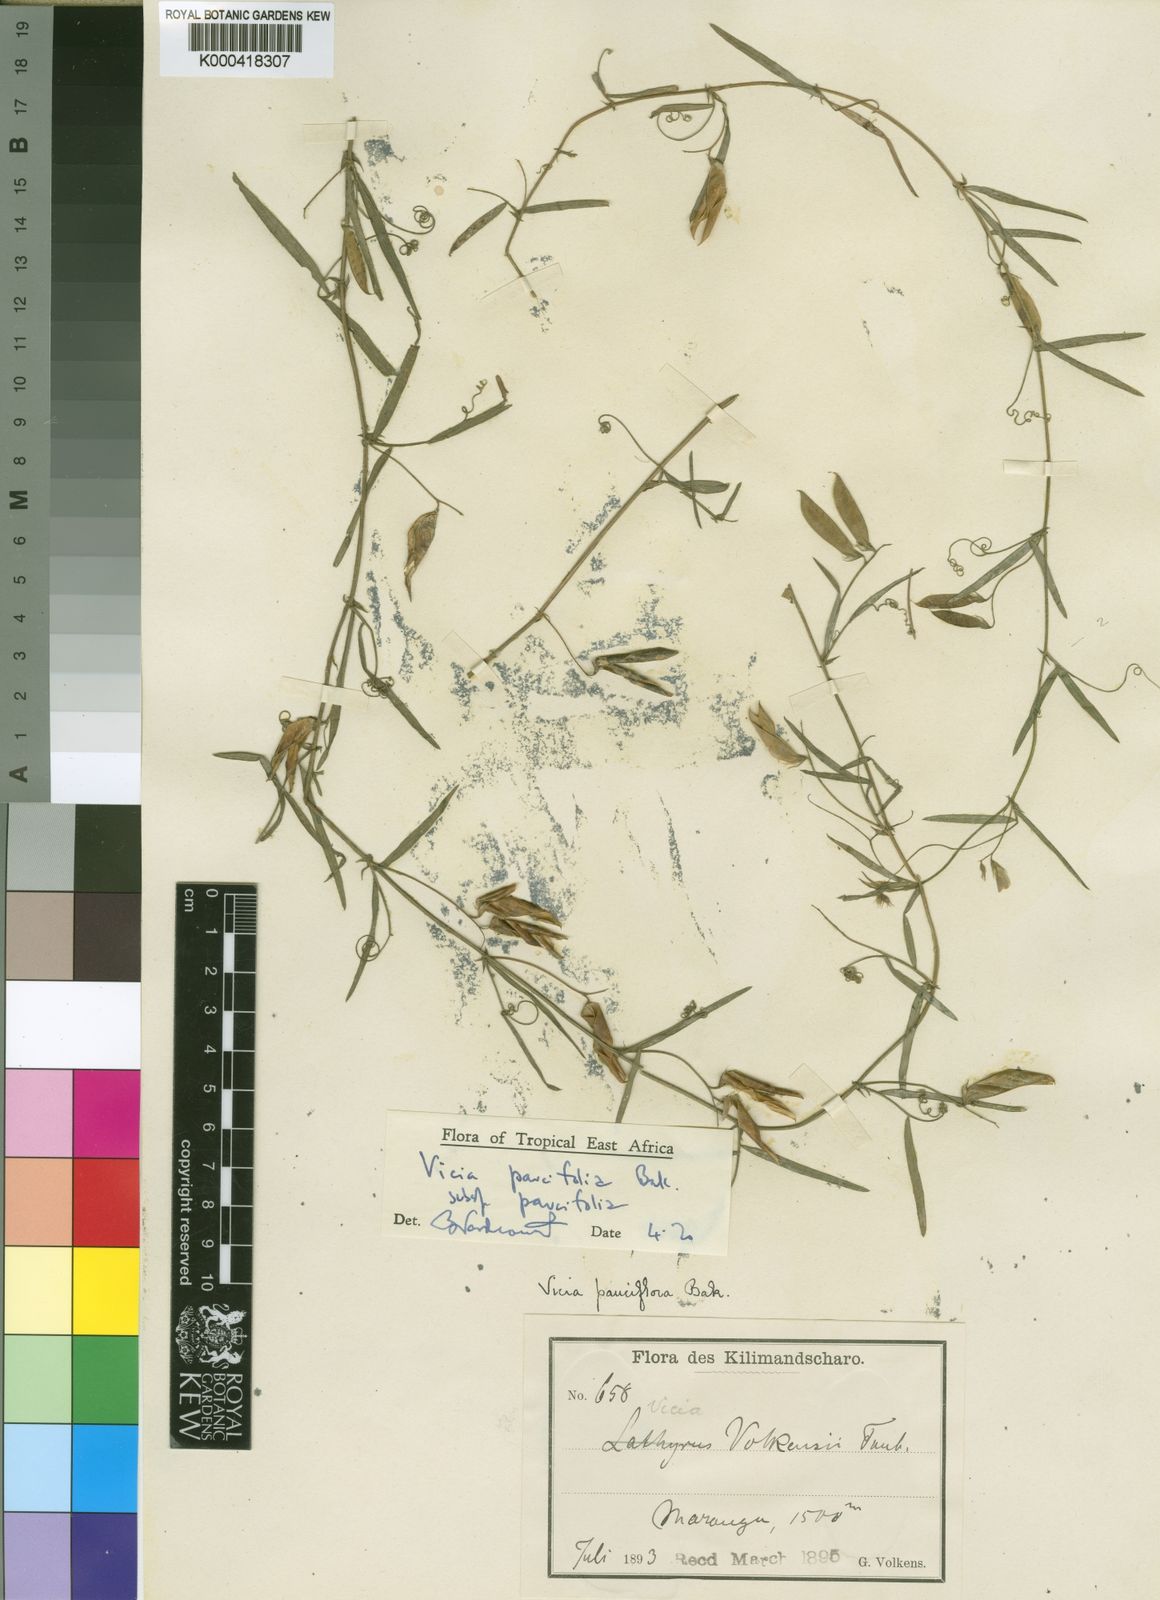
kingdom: Plantae
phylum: Tracheophyta
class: Magnoliopsida
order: Fabales
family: Fabaceae
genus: Vicia
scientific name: Vicia paucifolia
